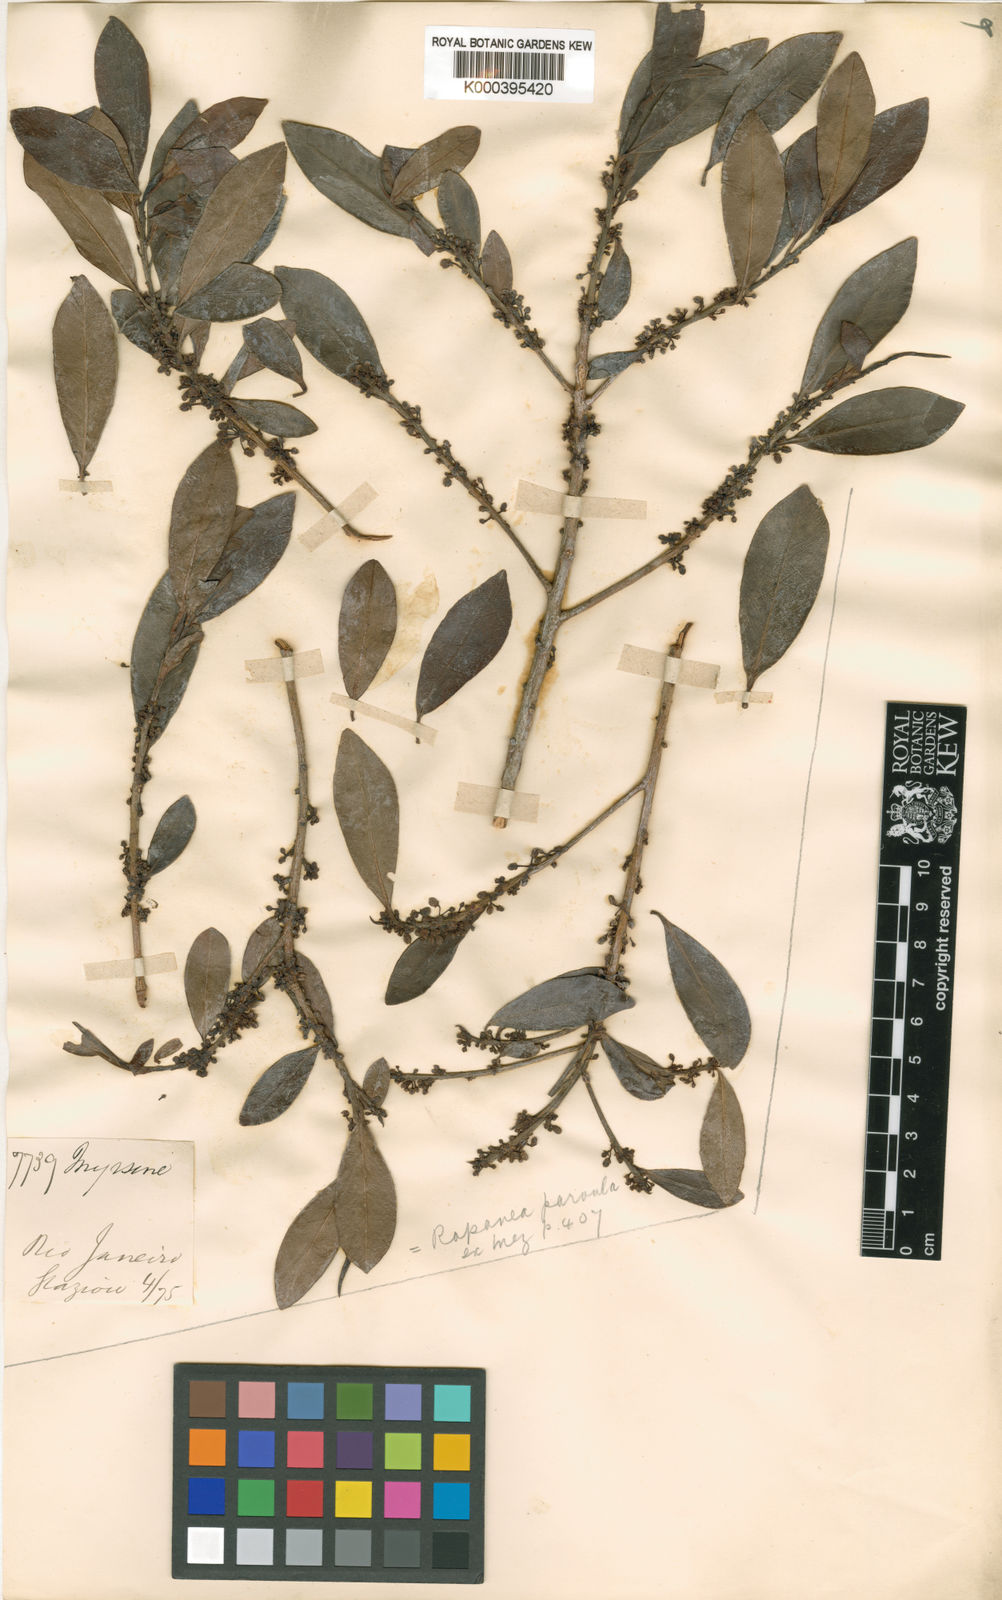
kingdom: Plantae
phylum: Tracheophyta
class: Magnoliopsida
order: Ericales
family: Primulaceae
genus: Myrsine
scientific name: Myrsine lorentziana
